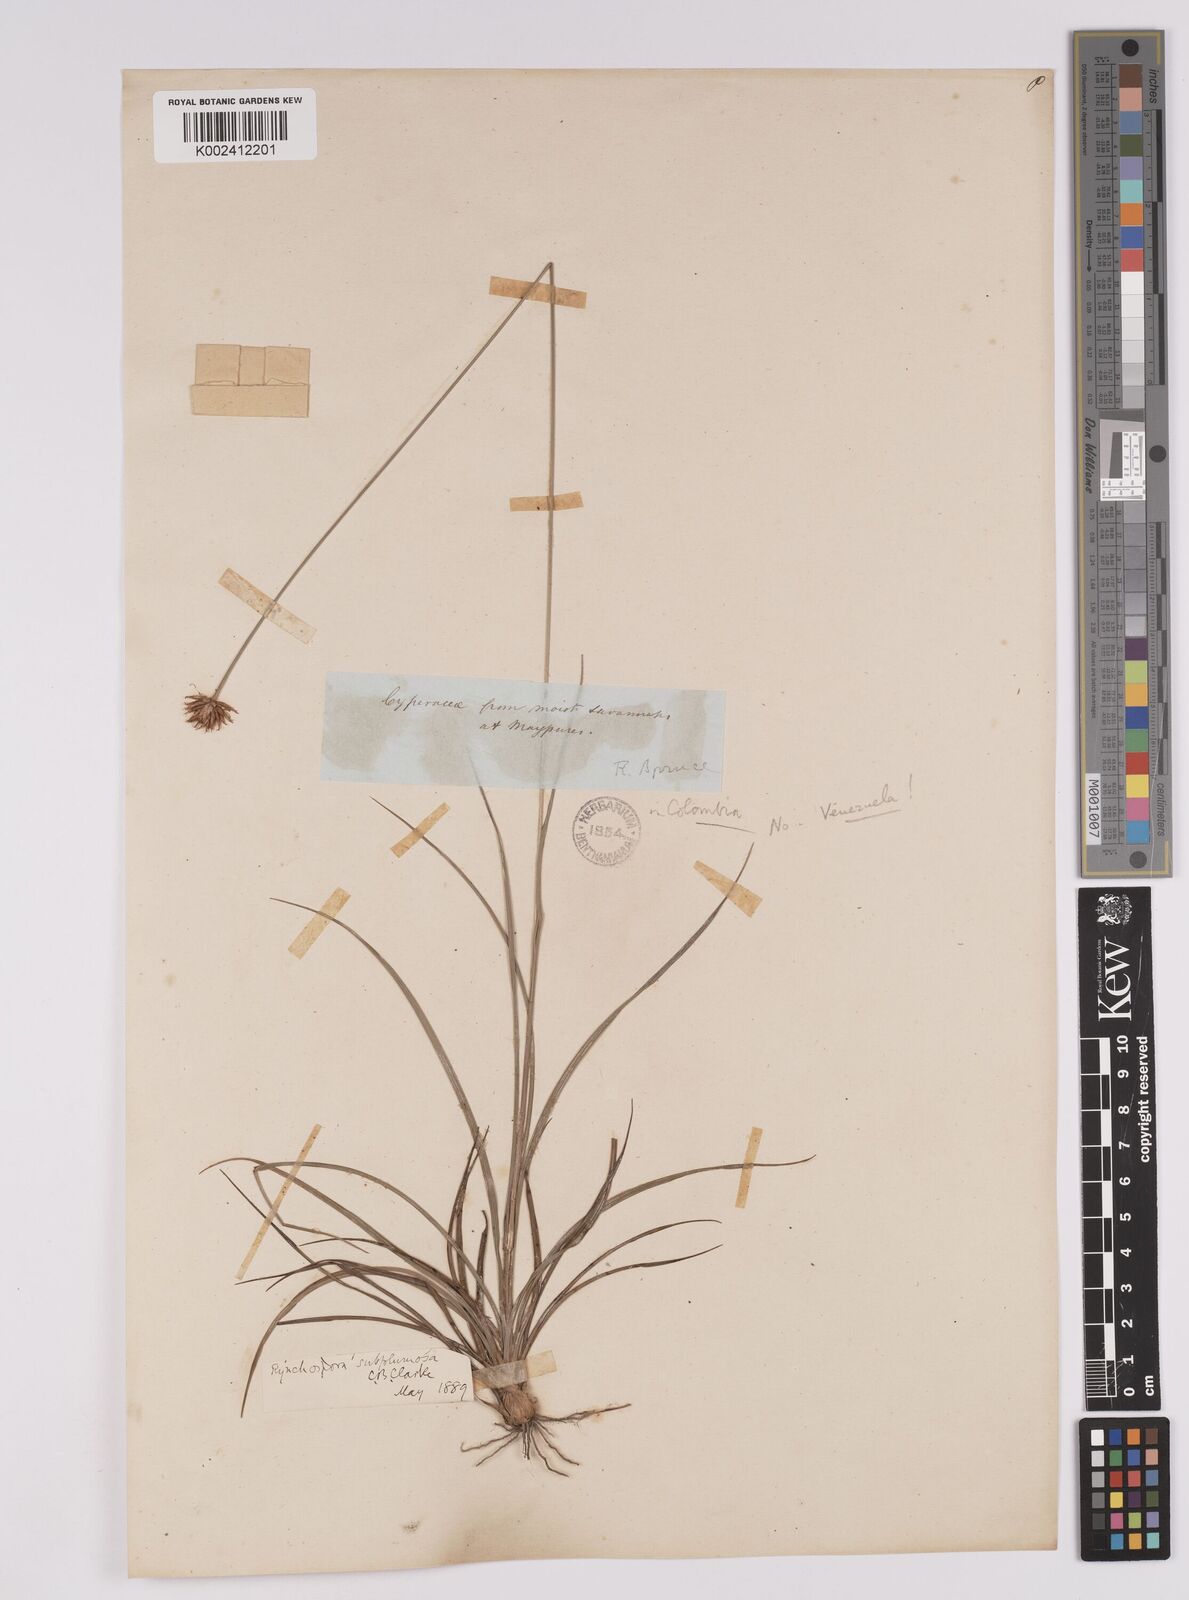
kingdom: Plantae
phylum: Tracheophyta
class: Liliopsida
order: Poales
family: Cyperaceae
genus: Rhynchospora
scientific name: Rhynchospora subplumosa
